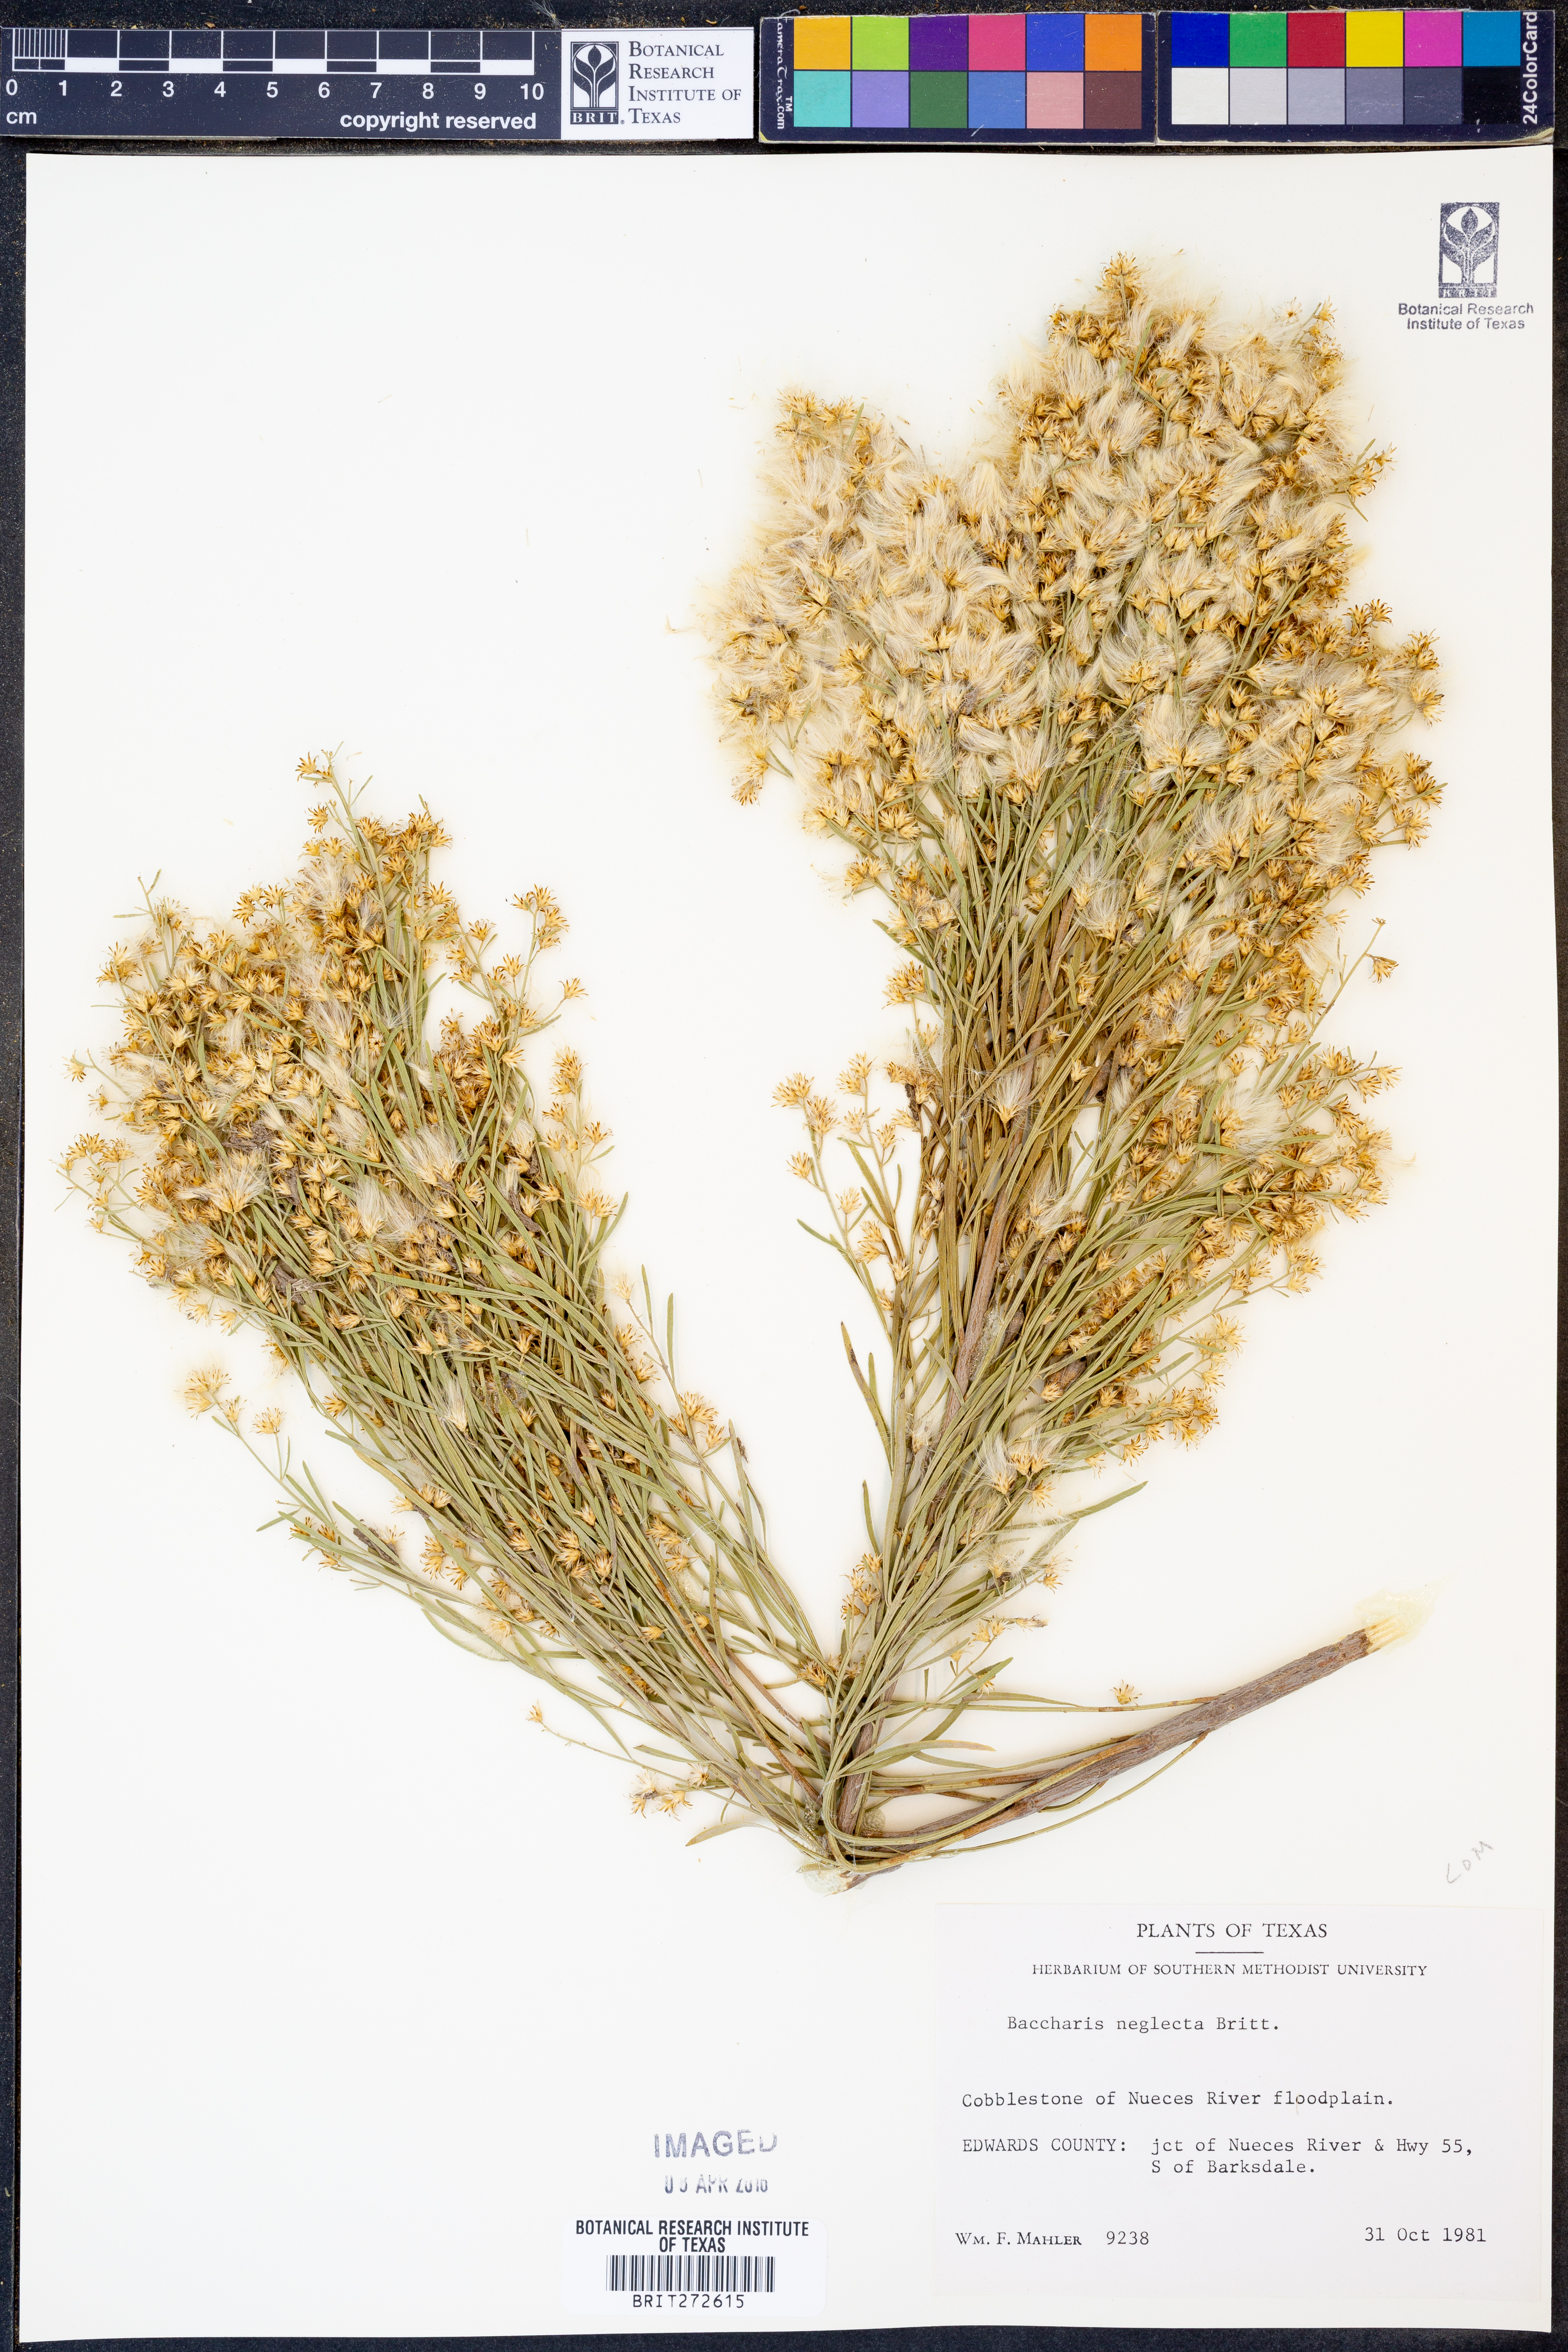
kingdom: Plantae
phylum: Tracheophyta
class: Magnoliopsida
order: Asterales
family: Asteraceae
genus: Baccharis
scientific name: Baccharis neglecta
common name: Roosevelt-weed
